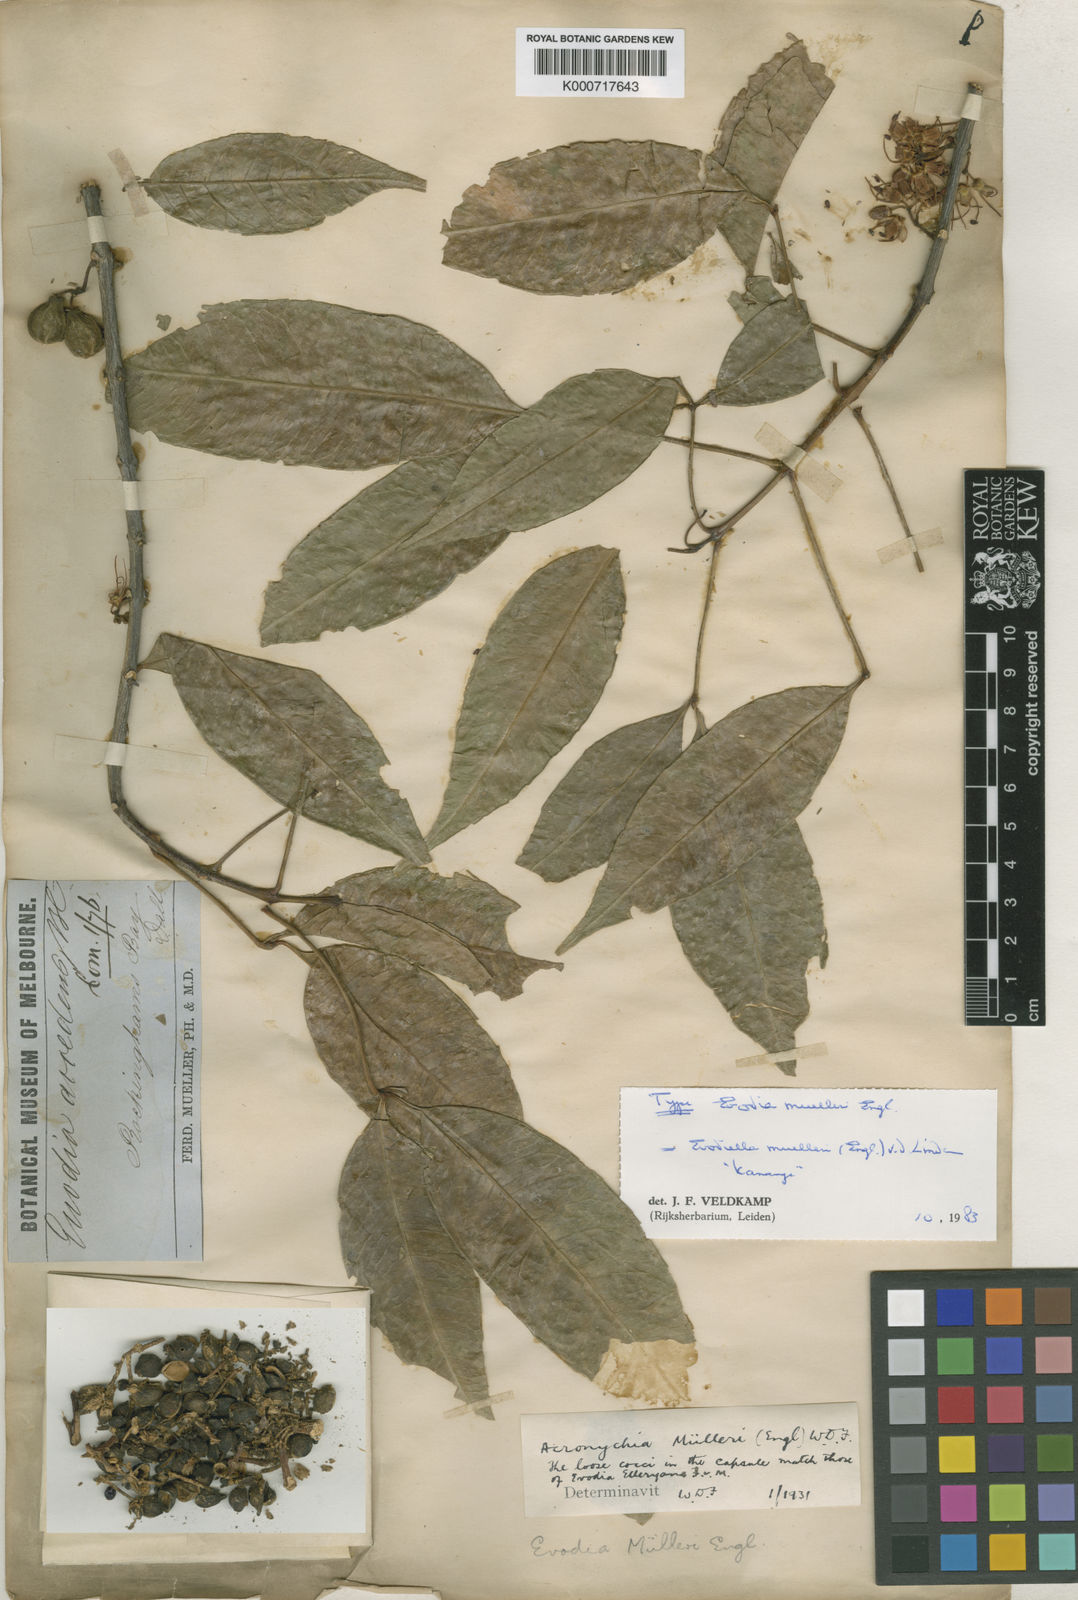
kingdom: Plantae
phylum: Tracheophyta
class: Magnoliopsida
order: Sapindales
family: Rutaceae
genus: Melicope
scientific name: Melicope
